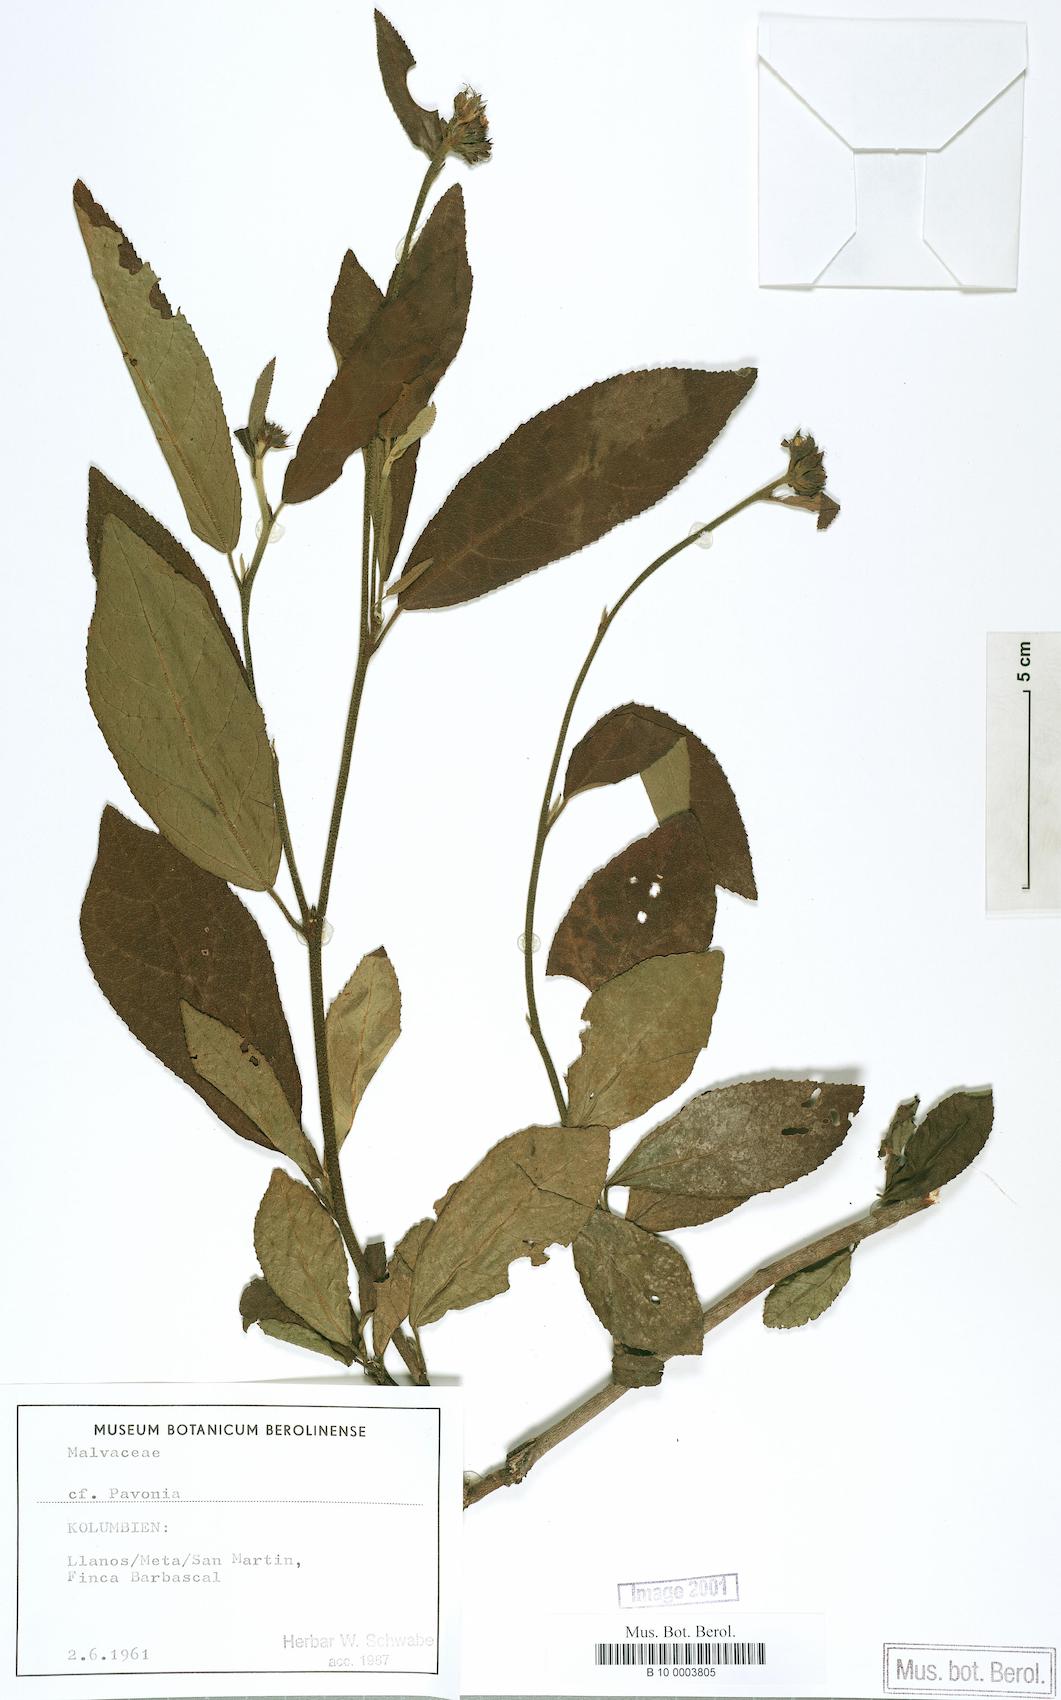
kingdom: Plantae
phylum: Tracheophyta
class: Magnoliopsida
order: Malvales
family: Malvaceae
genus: Pavonia
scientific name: Pavonia
